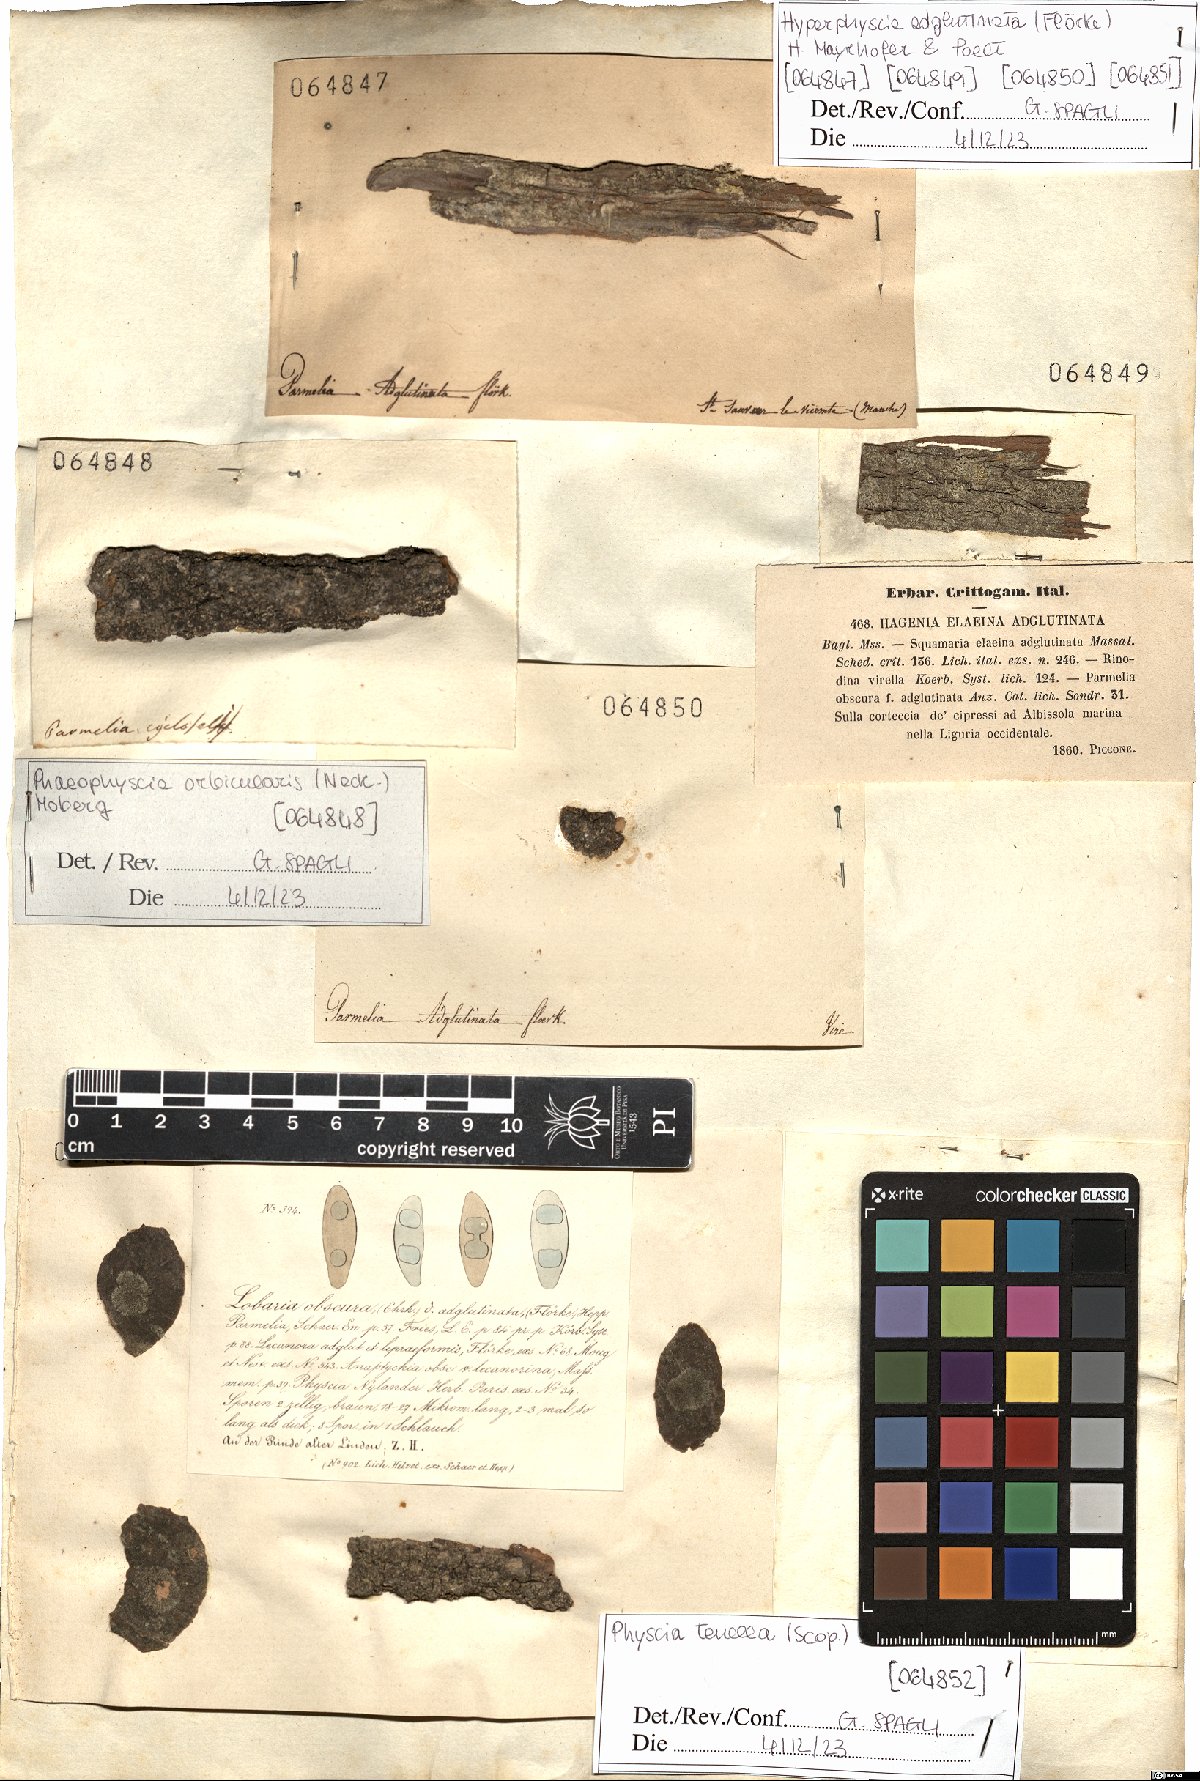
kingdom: Fungi
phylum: Ascomycota
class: Lecanoromycetes
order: Caliciales
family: Physciaceae
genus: Hyperphyscia
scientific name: Hyperphyscia adglutinata
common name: Grainy shadow-crust lichen
